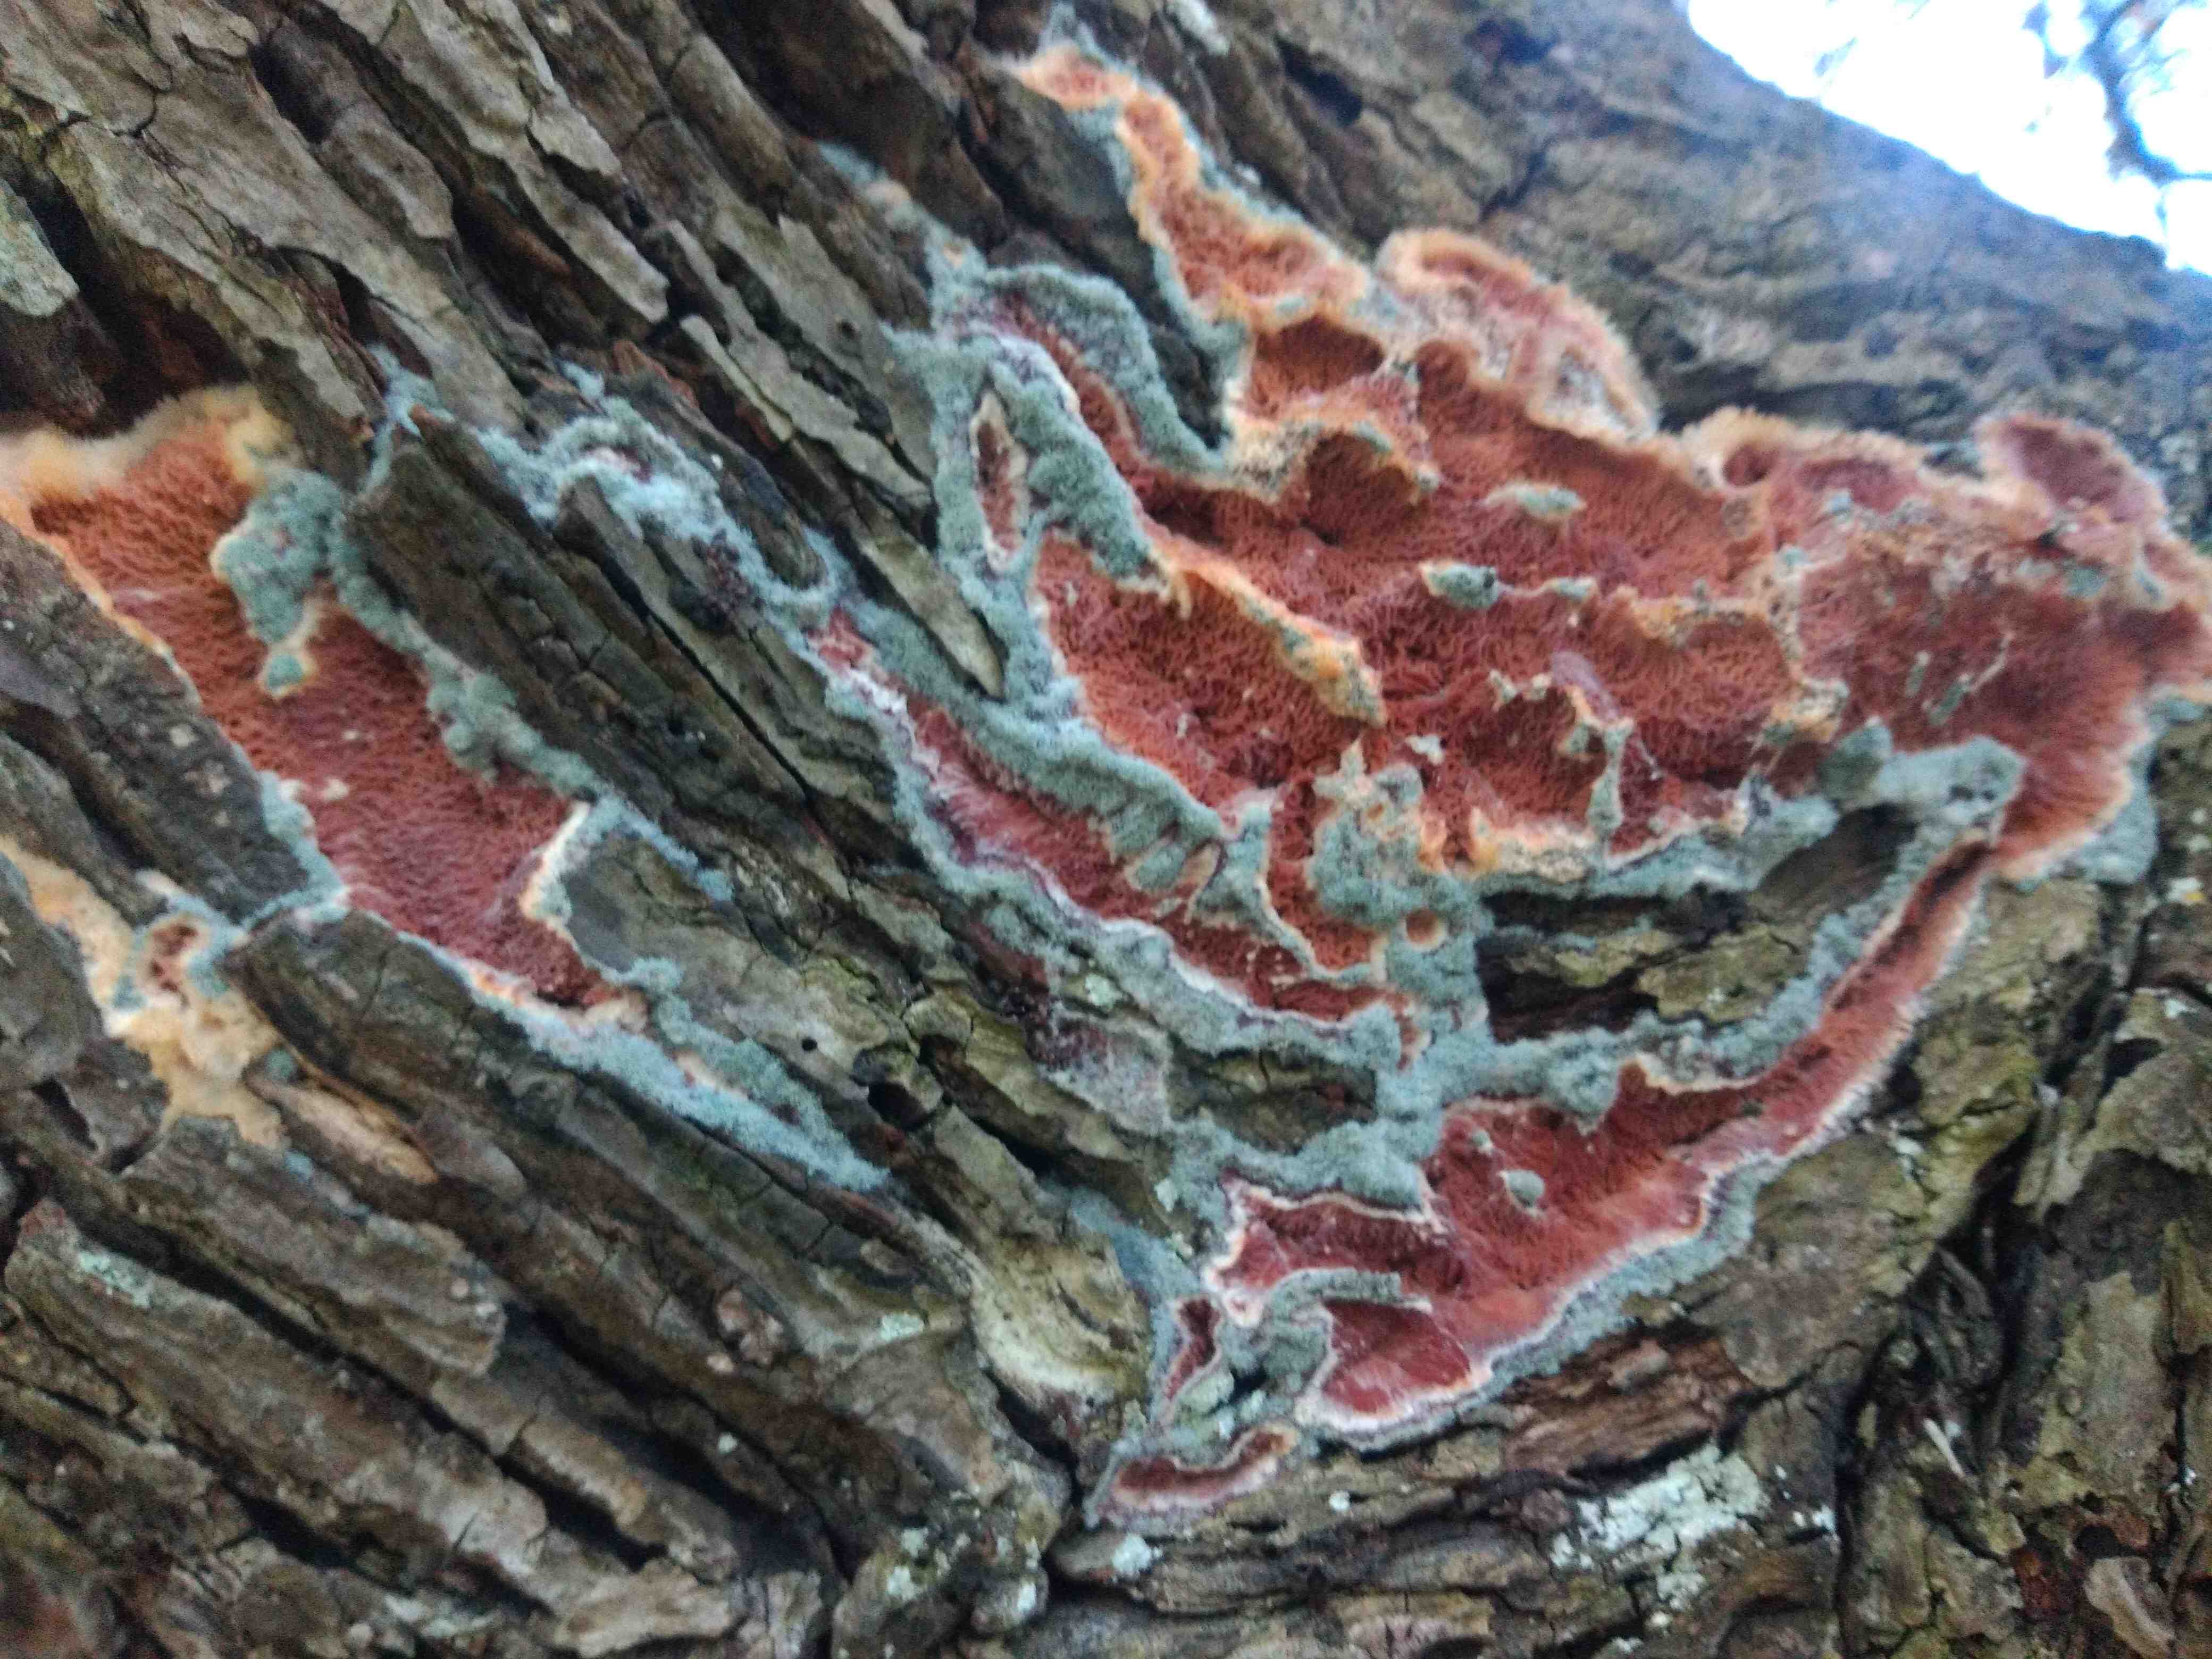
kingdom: Fungi
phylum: Basidiomycota
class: Agaricomycetes
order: Polyporales
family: Meruliaceae
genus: Phlebia
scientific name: Phlebia tremellosa
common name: bævrende åresvamp
